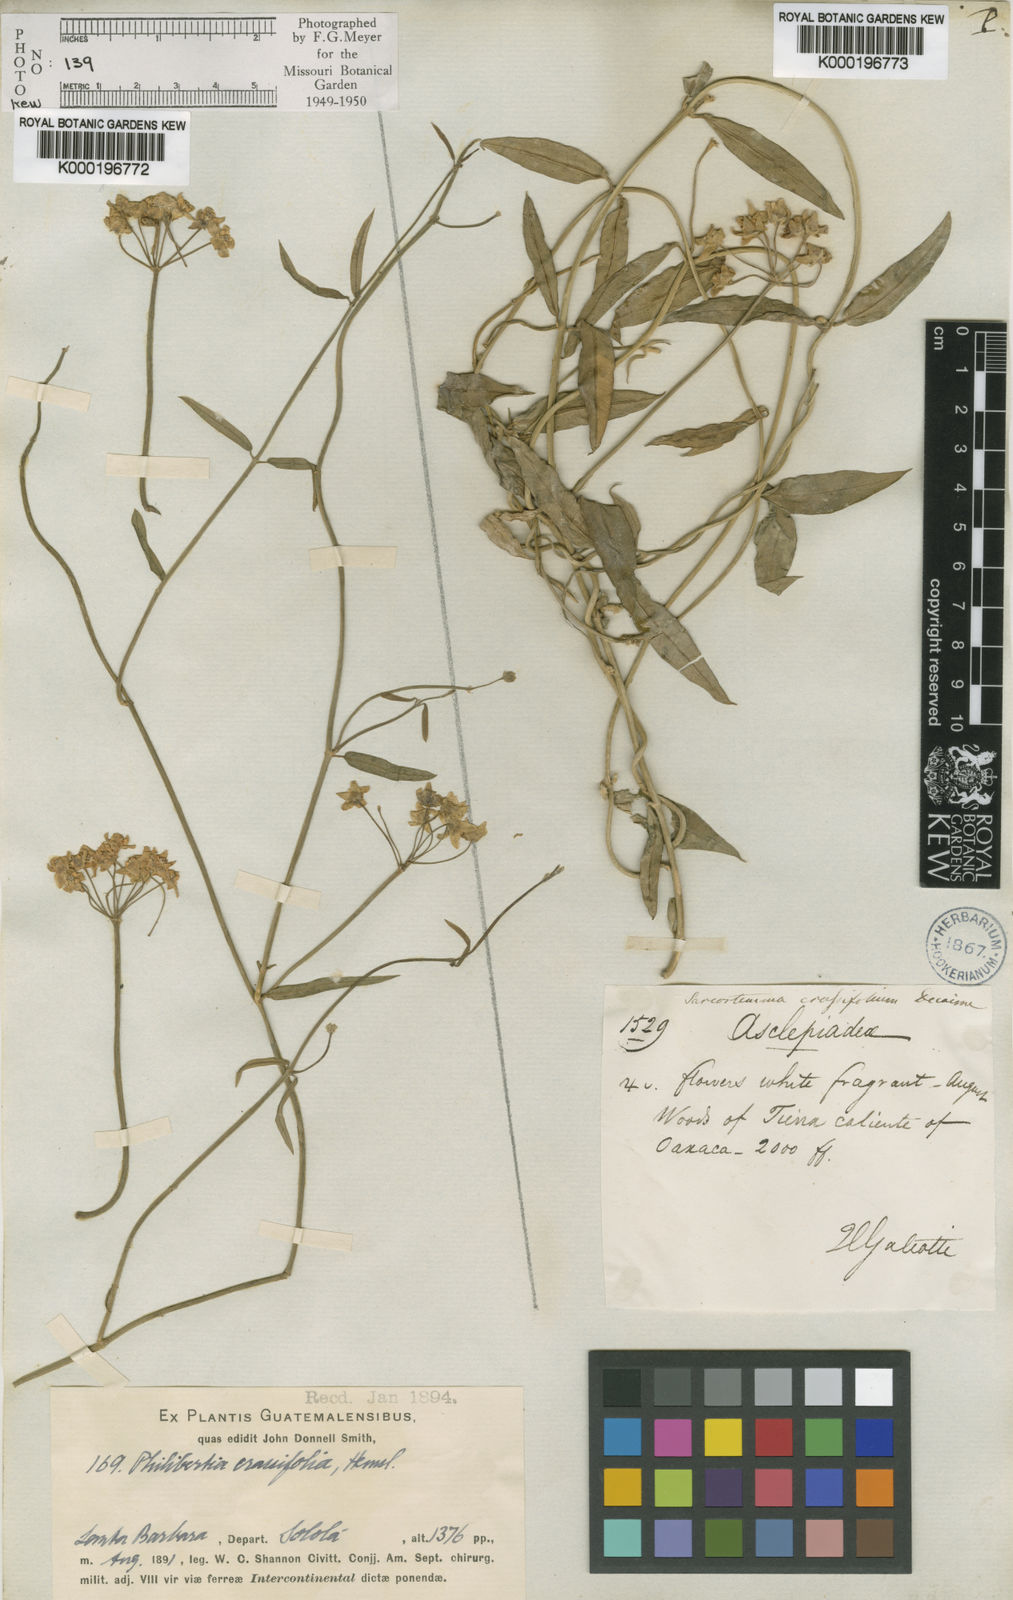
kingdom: Plantae
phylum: Tracheophyta
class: Magnoliopsida
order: Gentianales
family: Apocynaceae
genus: Funastrum
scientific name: Funastrum clausum
